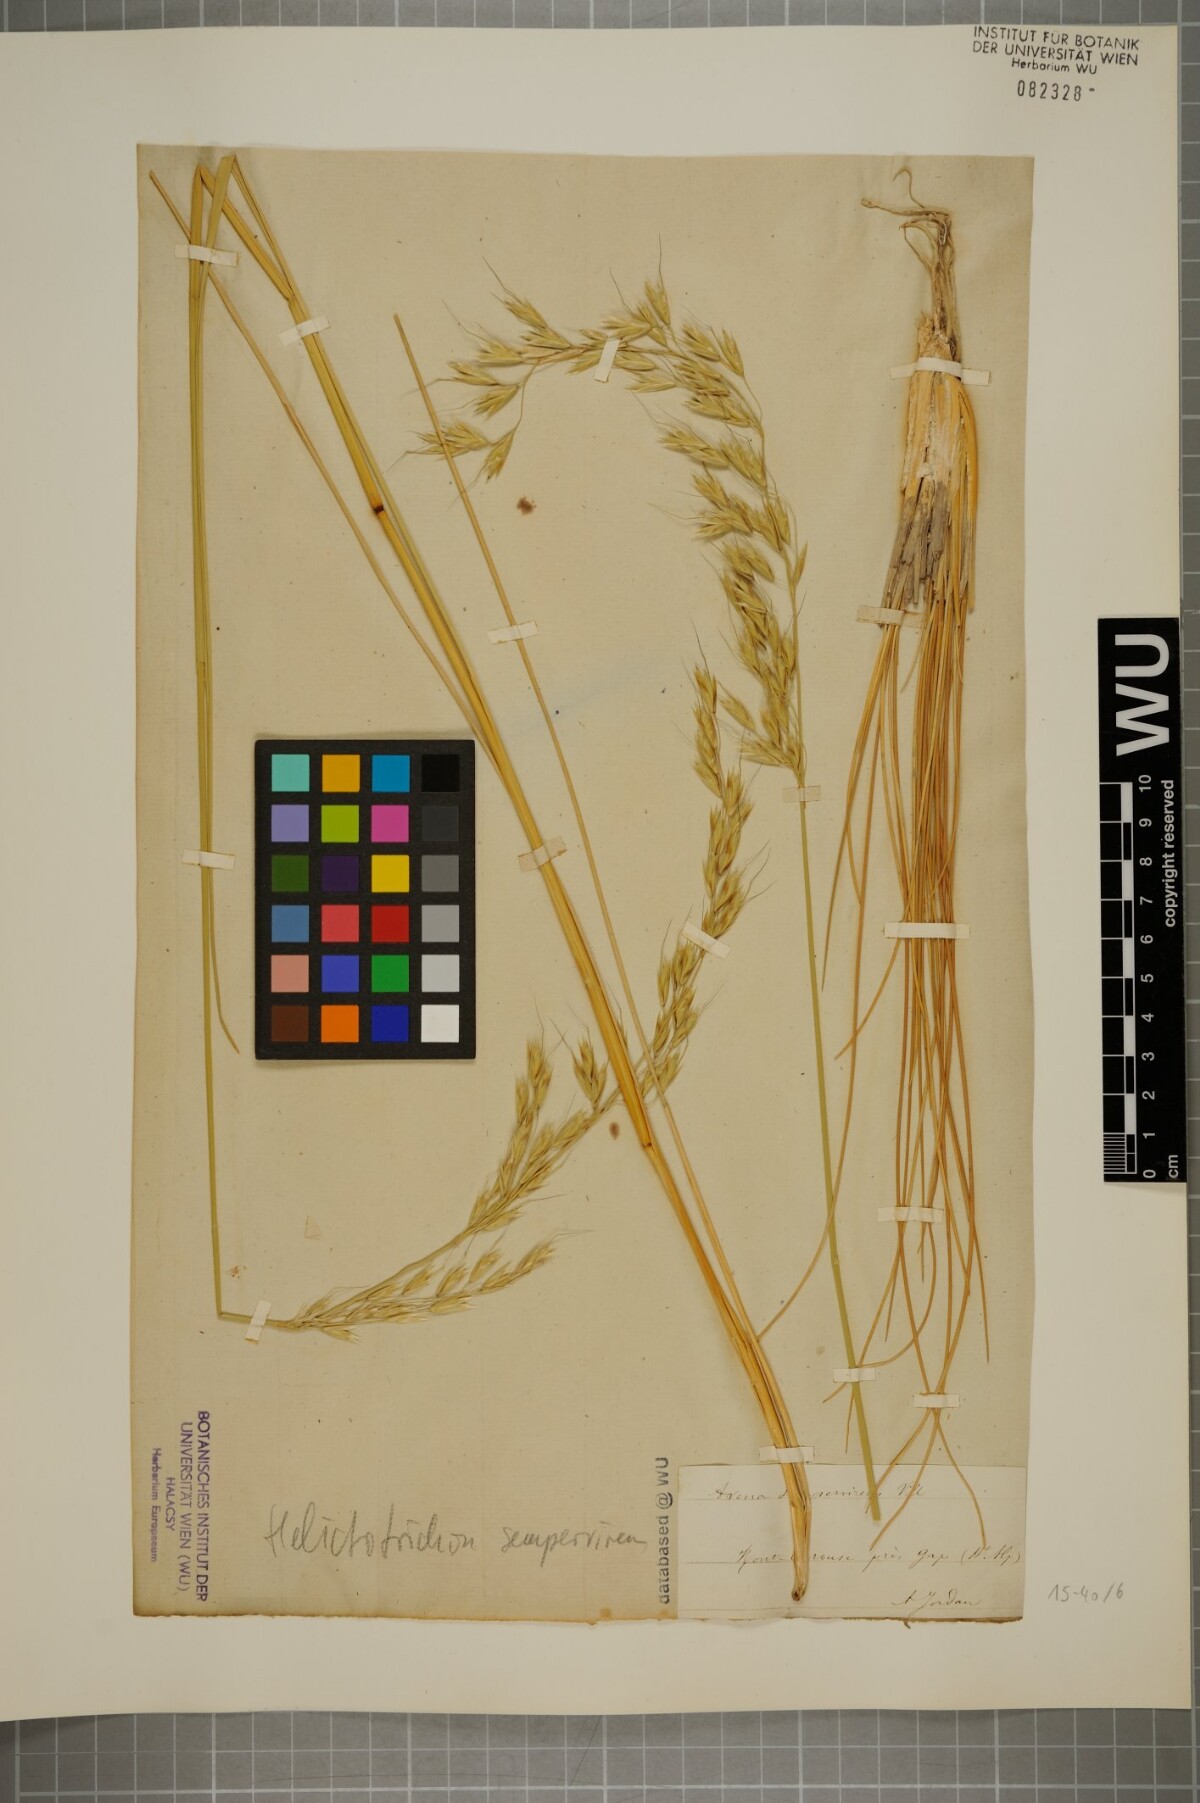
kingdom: Plantae
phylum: Tracheophyta
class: Liliopsida
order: Poales
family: Poaceae
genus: Helictotrichon
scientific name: Helictotrichon sempervirens
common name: Blue oat-grass
